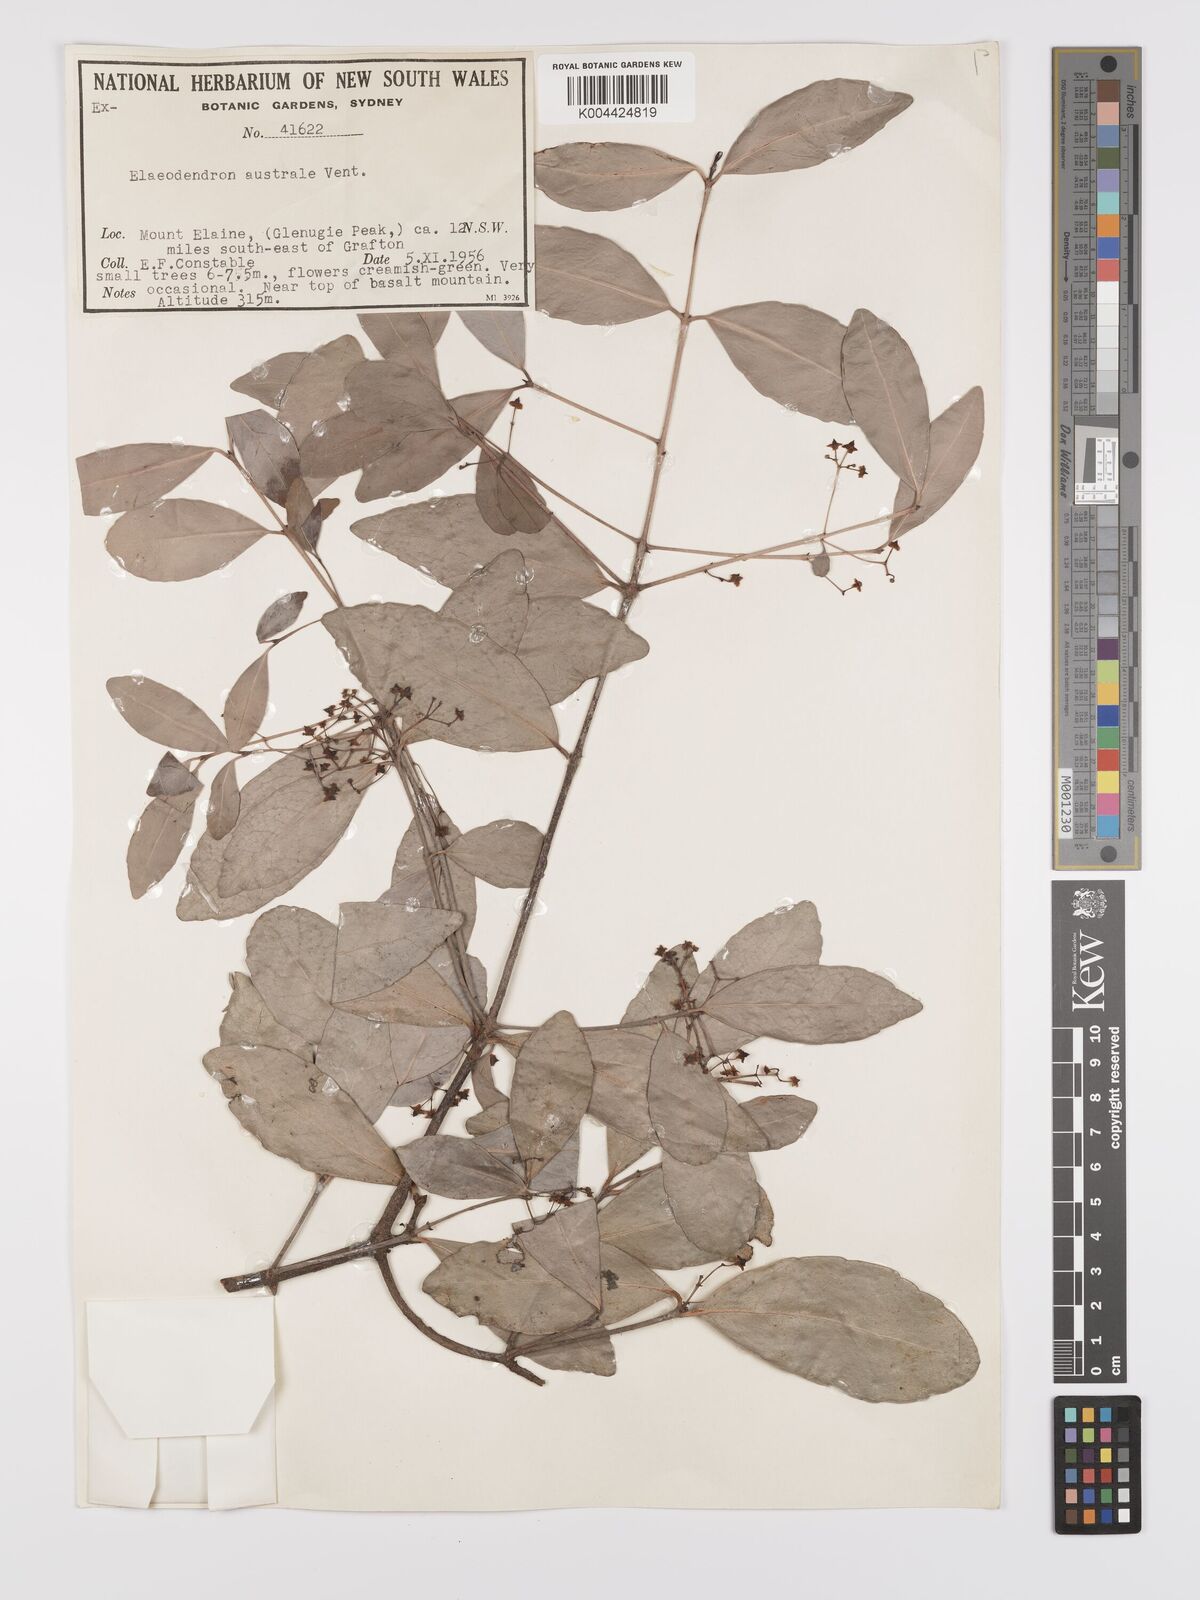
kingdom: Plantae
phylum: Tracheophyta
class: Magnoliopsida
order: Celastrales
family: Celastraceae
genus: Elaeodendron
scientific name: Elaeodendron australe
